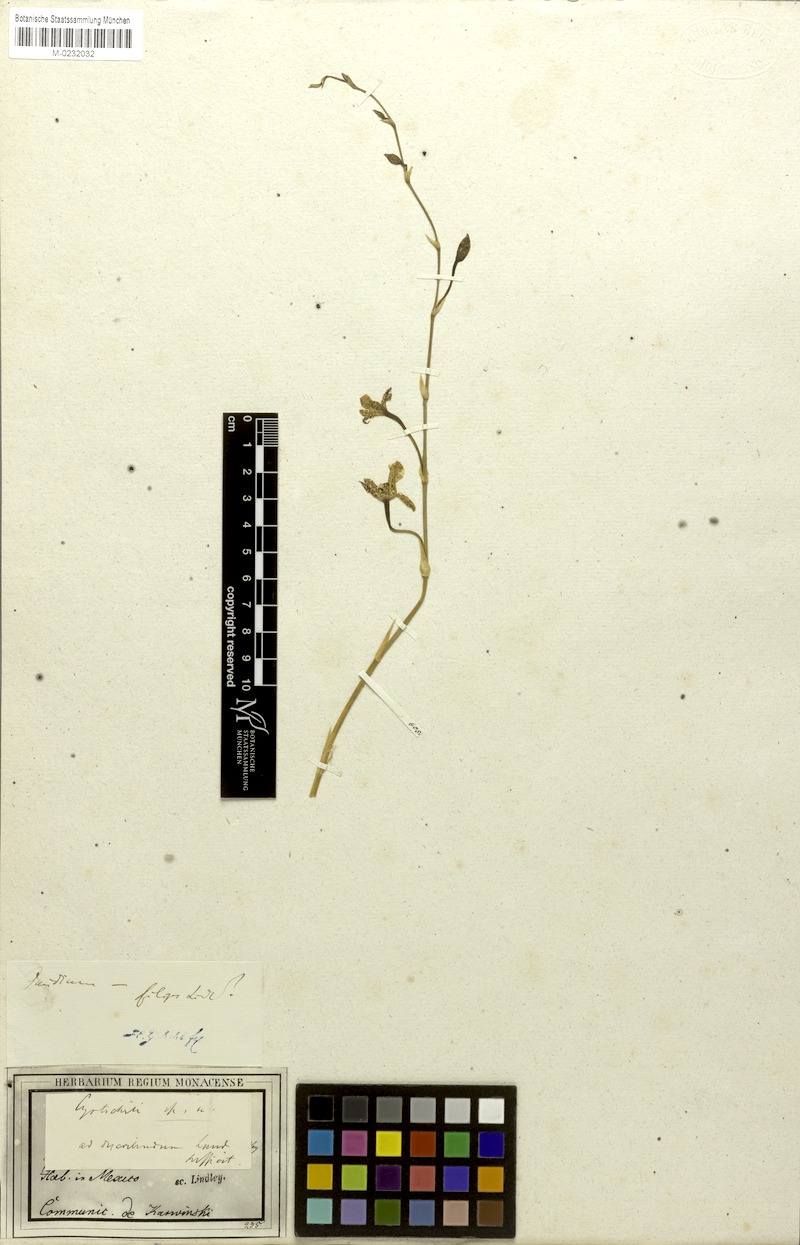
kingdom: Plantae
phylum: Tracheophyta
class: Liliopsida
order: Asparagales
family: Orchidaceae
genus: Oncidium
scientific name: Oncidium graminifolium
